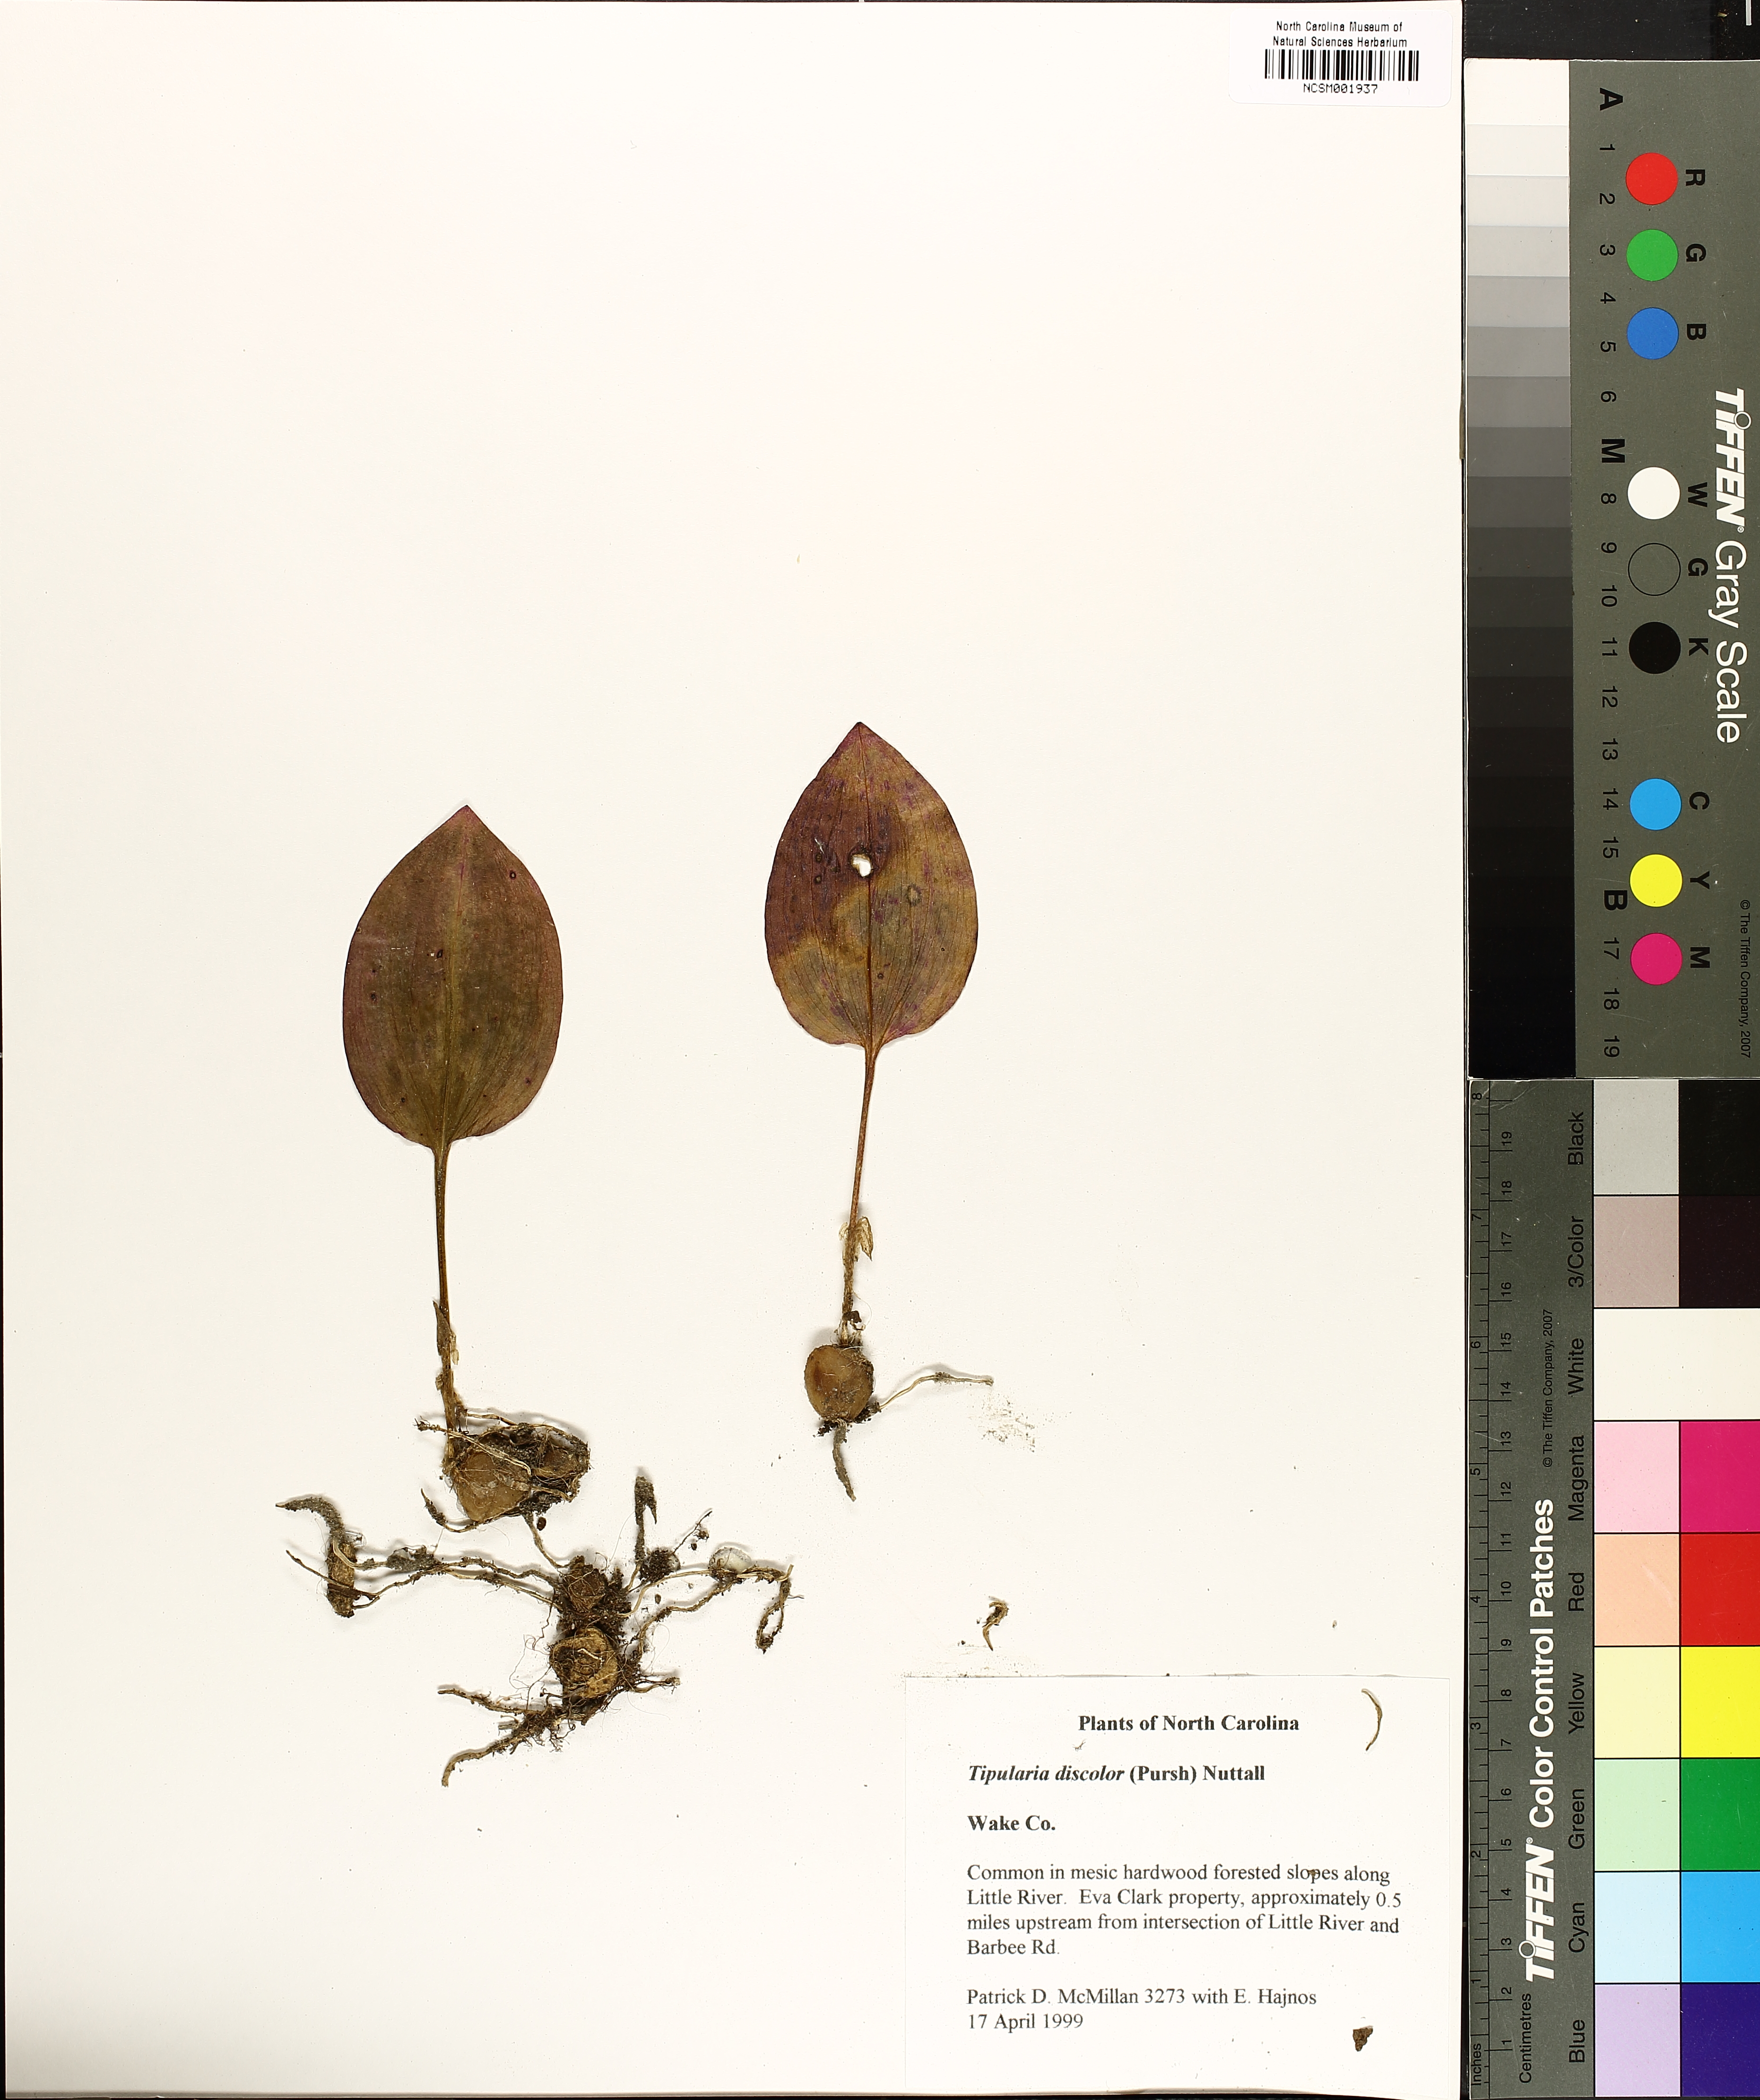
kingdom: Plantae
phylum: Tracheophyta
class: Liliopsida
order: Asparagales
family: Orchidaceae
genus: Tipularia
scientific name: Tipularia discolor
